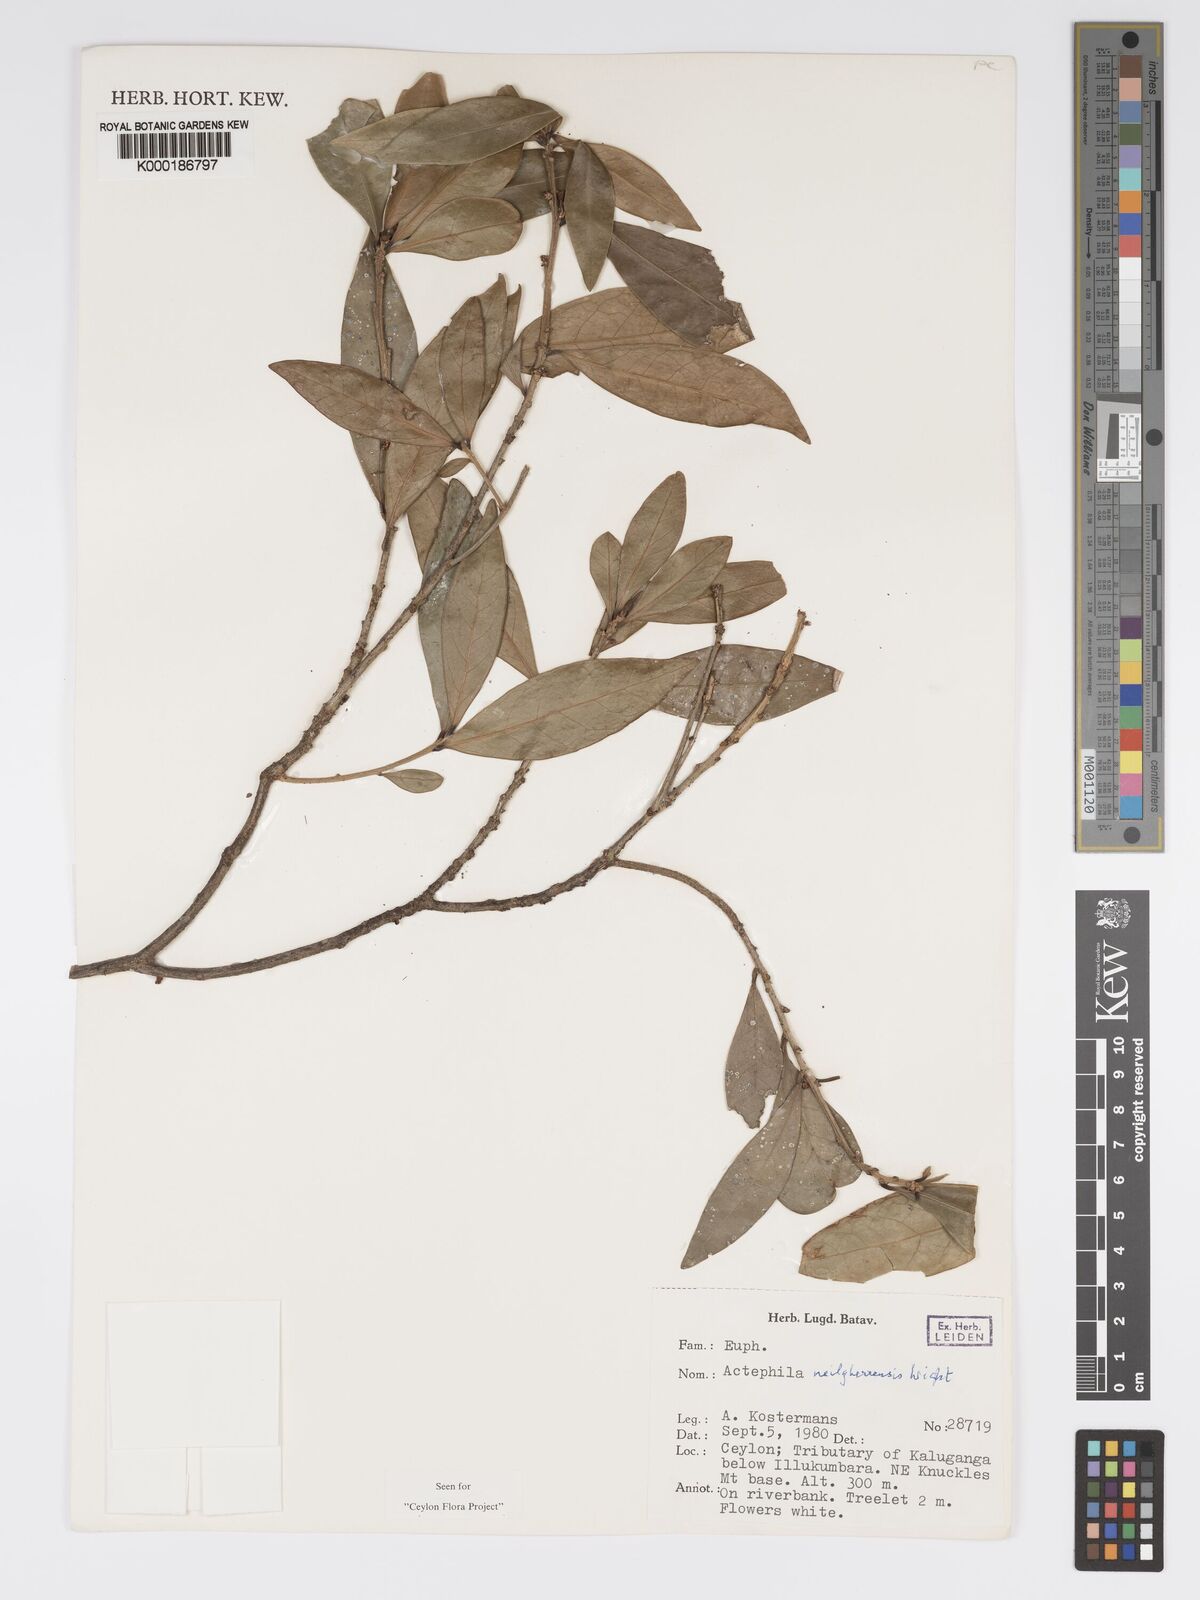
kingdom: Plantae
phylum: Tracheophyta
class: Magnoliopsida
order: Malpighiales
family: Phyllanthaceae
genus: Actephila
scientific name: Actephila excelsa
